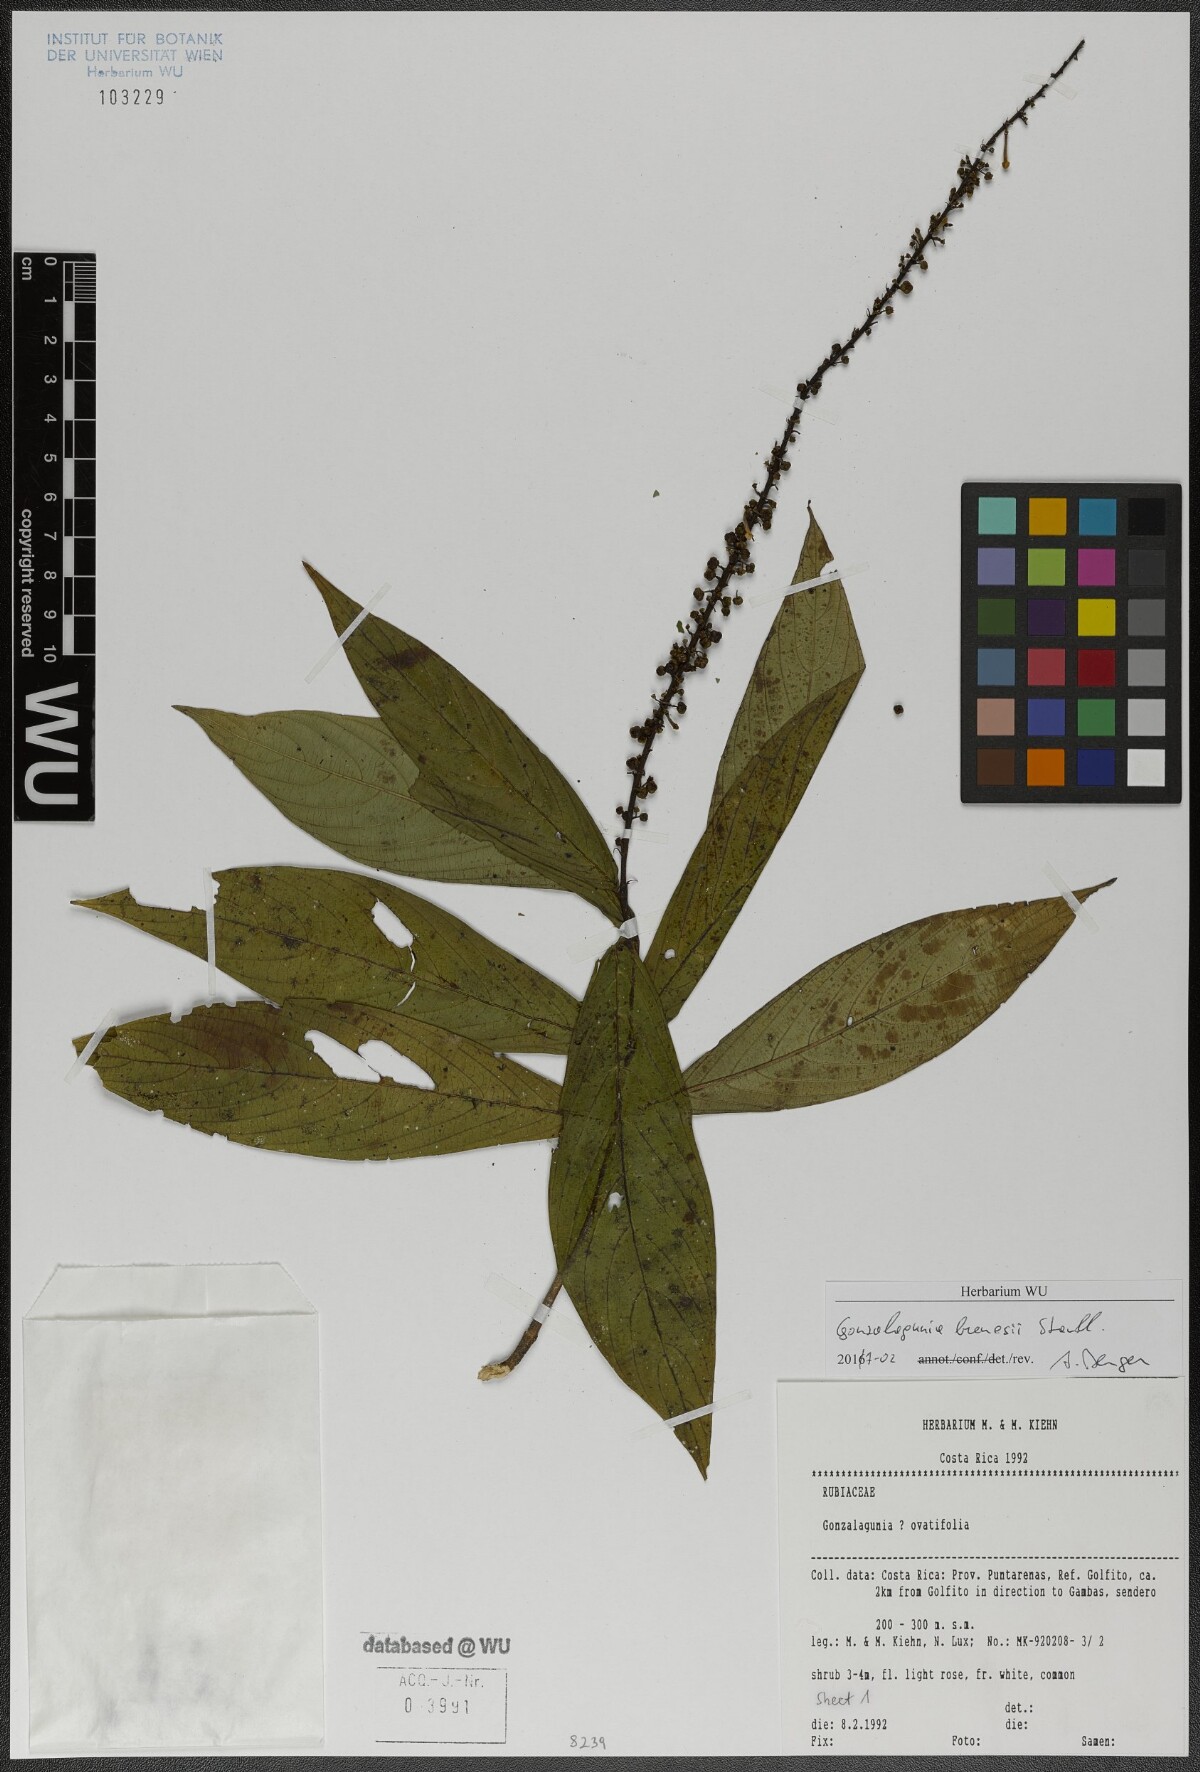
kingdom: Plantae
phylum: Tracheophyta
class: Magnoliopsida
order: Gentianales
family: Rubiaceae
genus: Gonzalagunia
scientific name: Gonzalagunia brenesii
